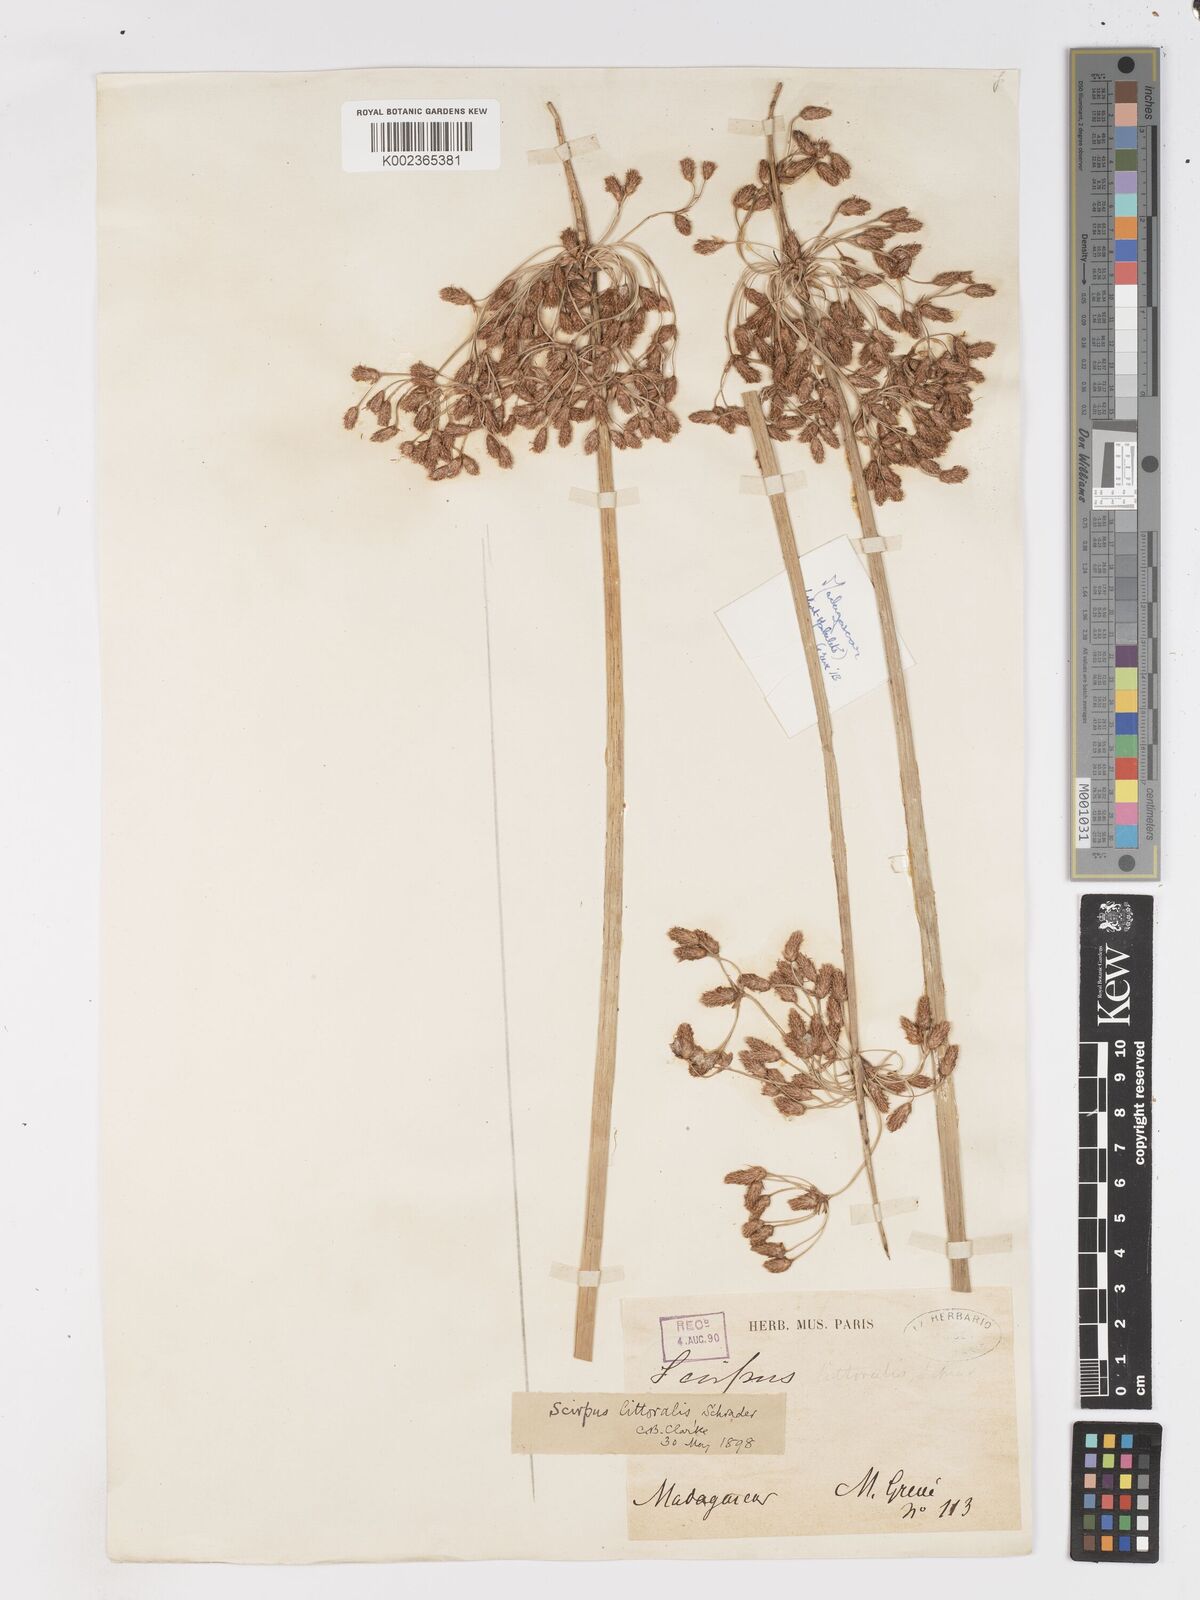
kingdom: Plantae
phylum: Tracheophyta
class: Liliopsida
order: Poales
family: Cyperaceae
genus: Schoenoplectus
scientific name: Schoenoplectus
